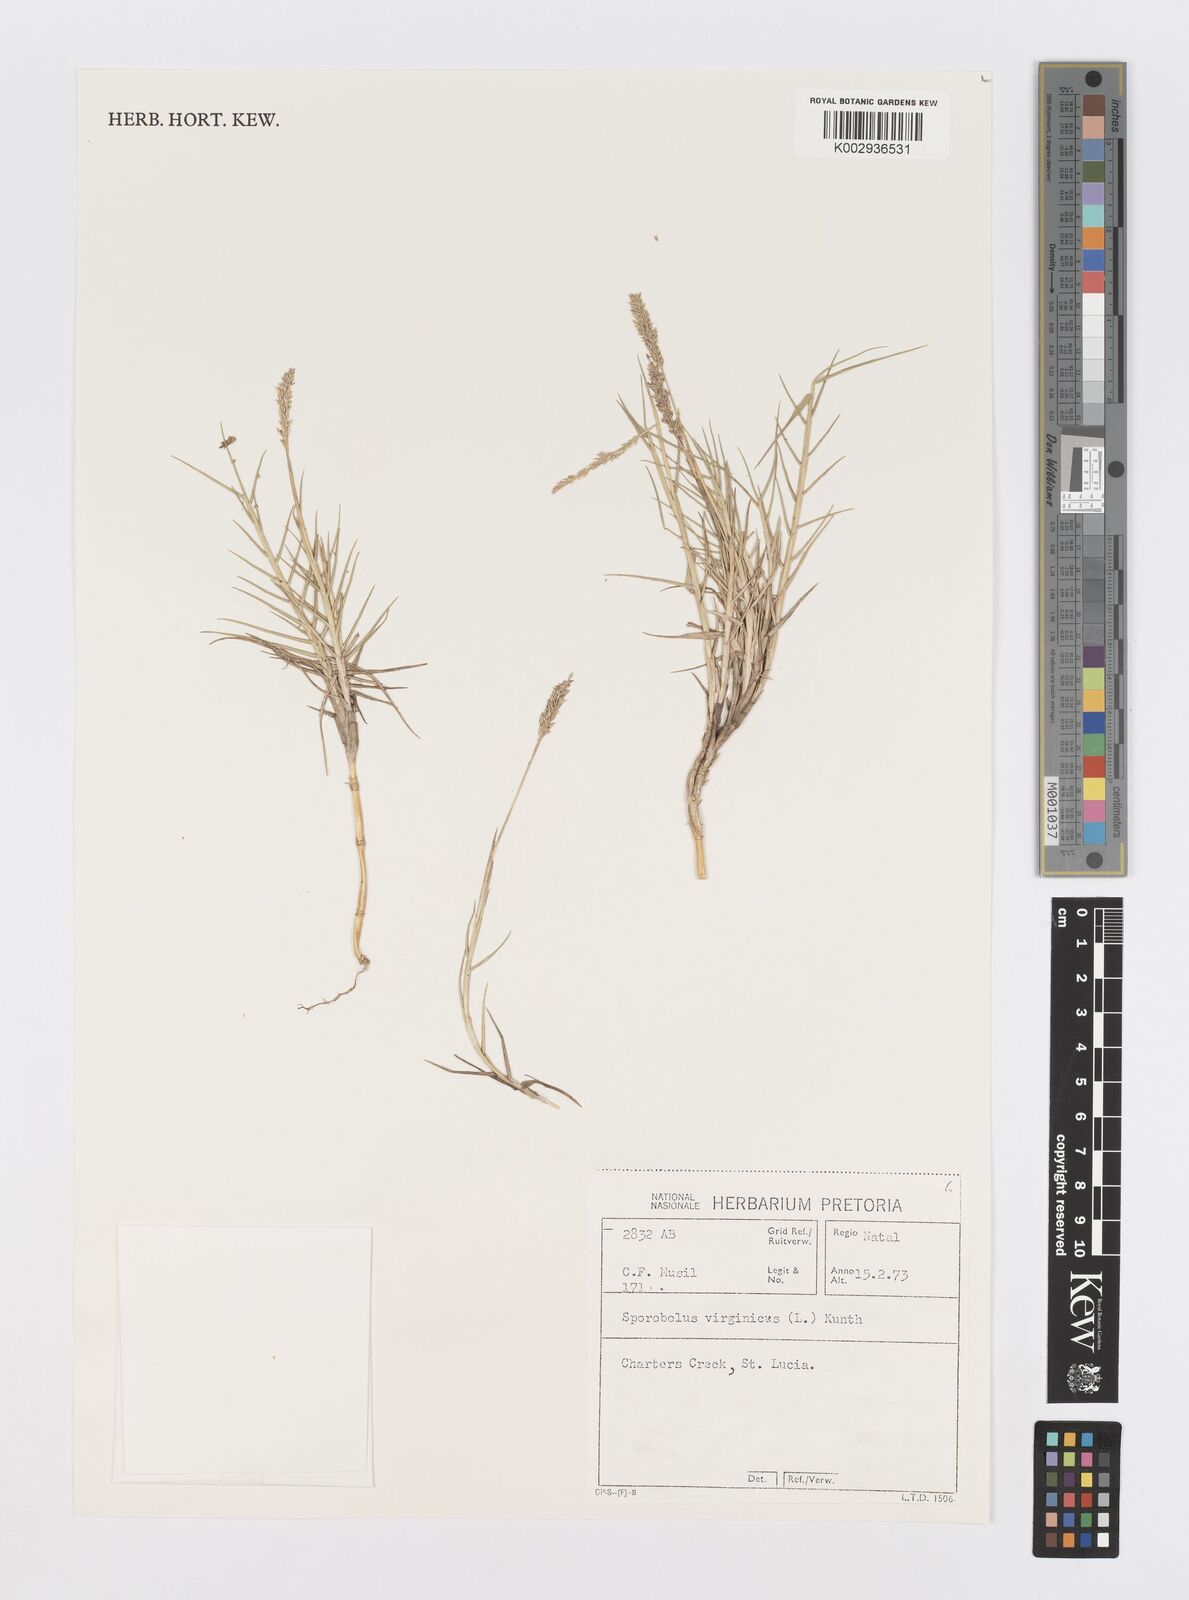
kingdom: Plantae
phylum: Tracheophyta
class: Liliopsida
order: Poales
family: Poaceae
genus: Sporobolus
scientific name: Sporobolus virginicus
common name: Beach dropseed
